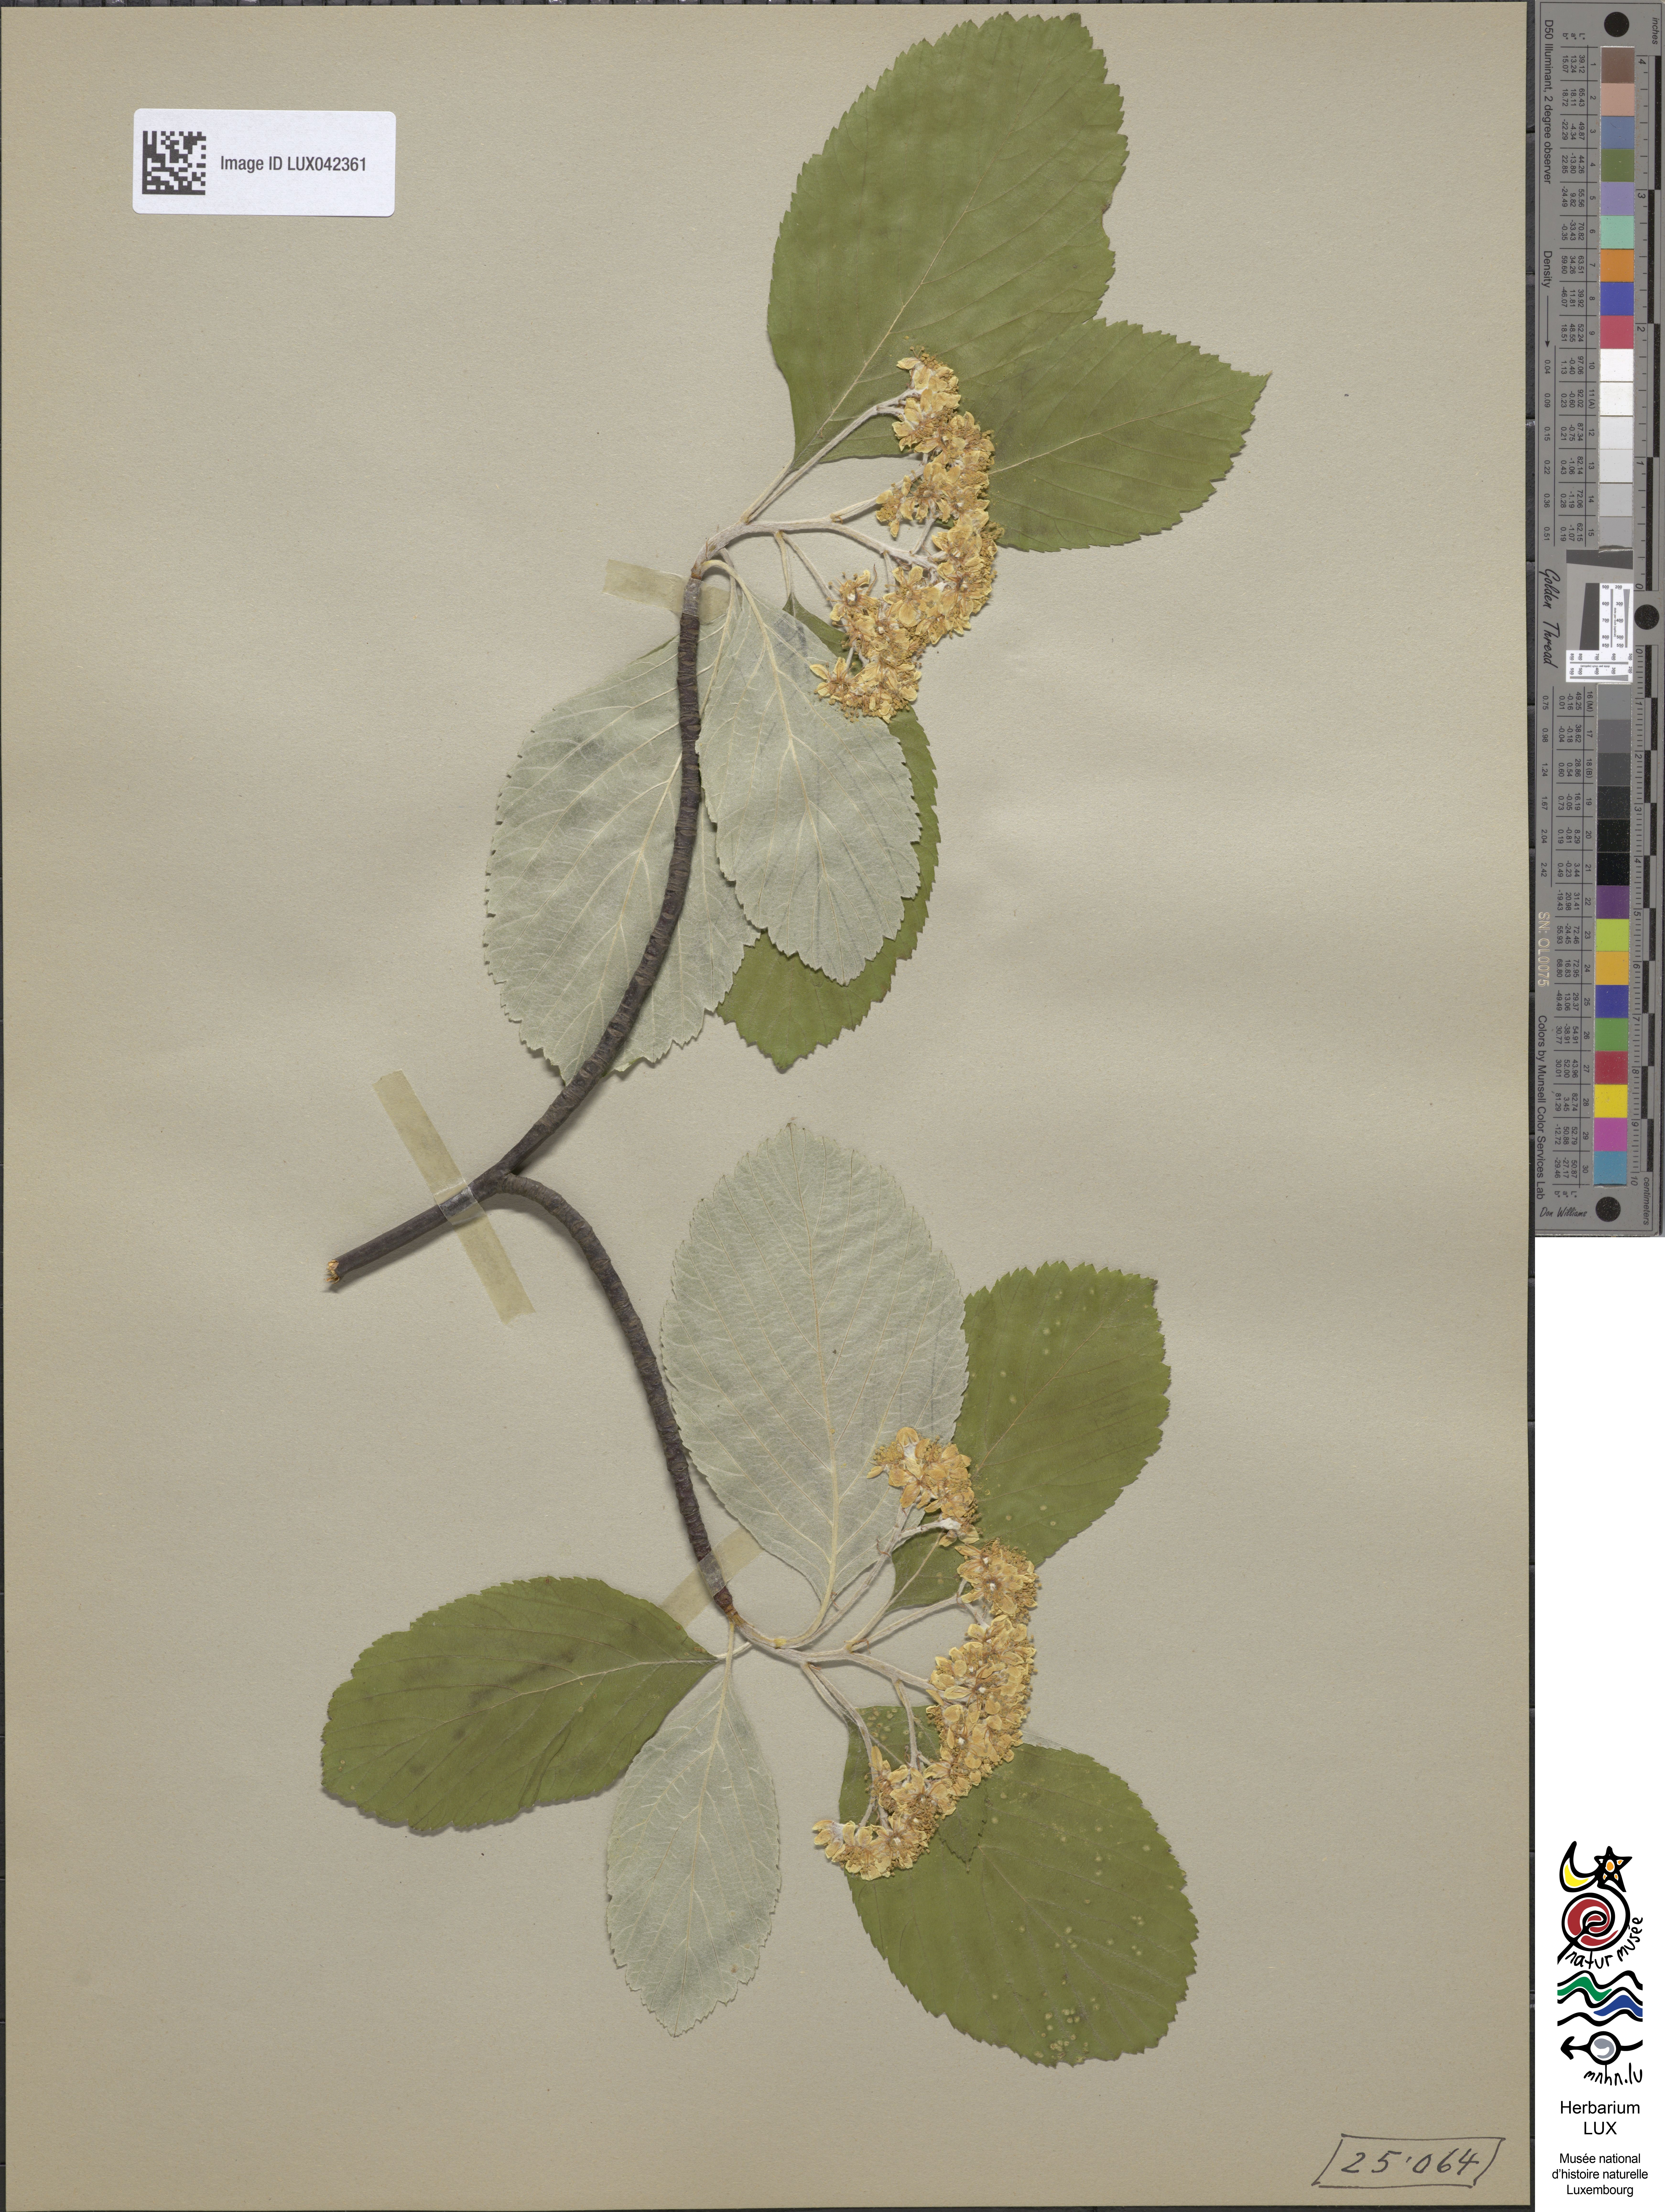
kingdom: Plantae
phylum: Tracheophyta
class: Magnoliopsida
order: Rosales
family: Rosaceae
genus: Aria
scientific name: Aria edulis
